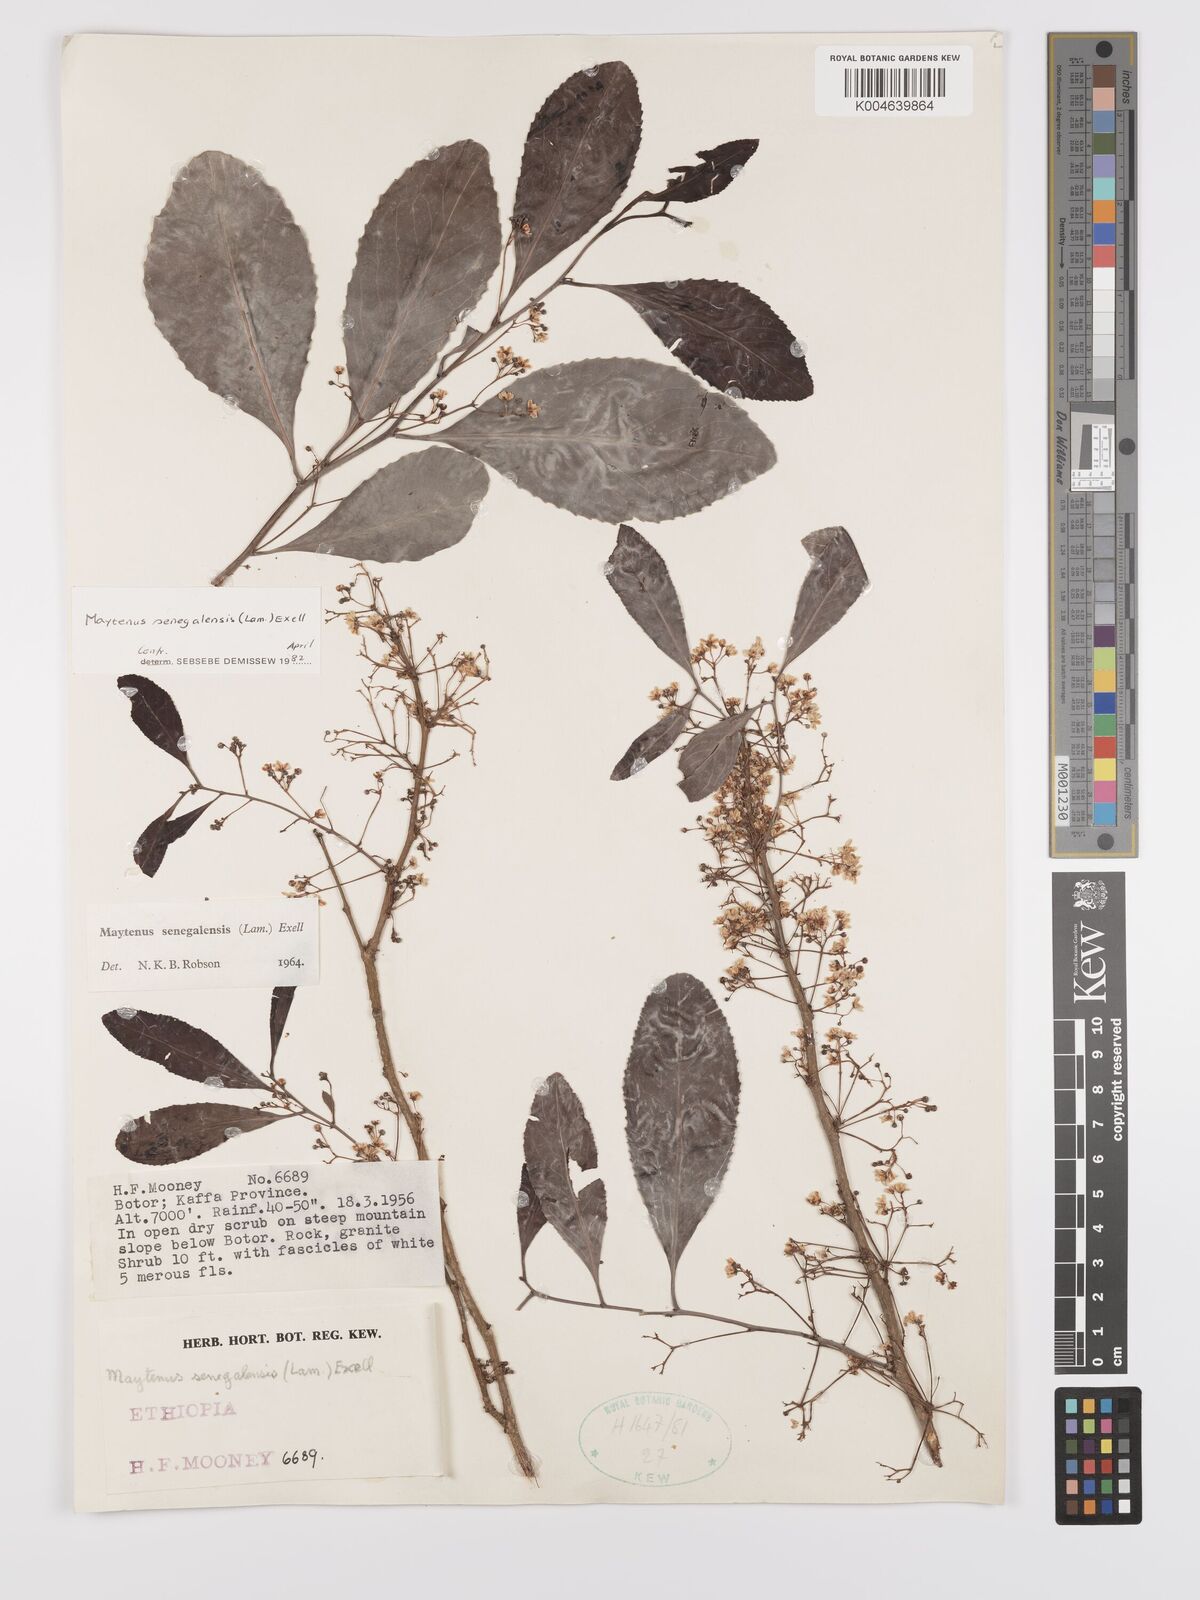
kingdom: Plantae
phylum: Tracheophyta
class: Magnoliopsida
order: Celastrales
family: Celastraceae
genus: Gymnosporia
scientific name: Gymnosporia senegalensis
